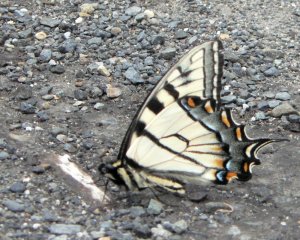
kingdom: Animalia
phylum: Arthropoda
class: Insecta
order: Lepidoptera
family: Papilionidae
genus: Pterourus
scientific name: Pterourus glaucus
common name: Eastern Tiger Swallowtail
